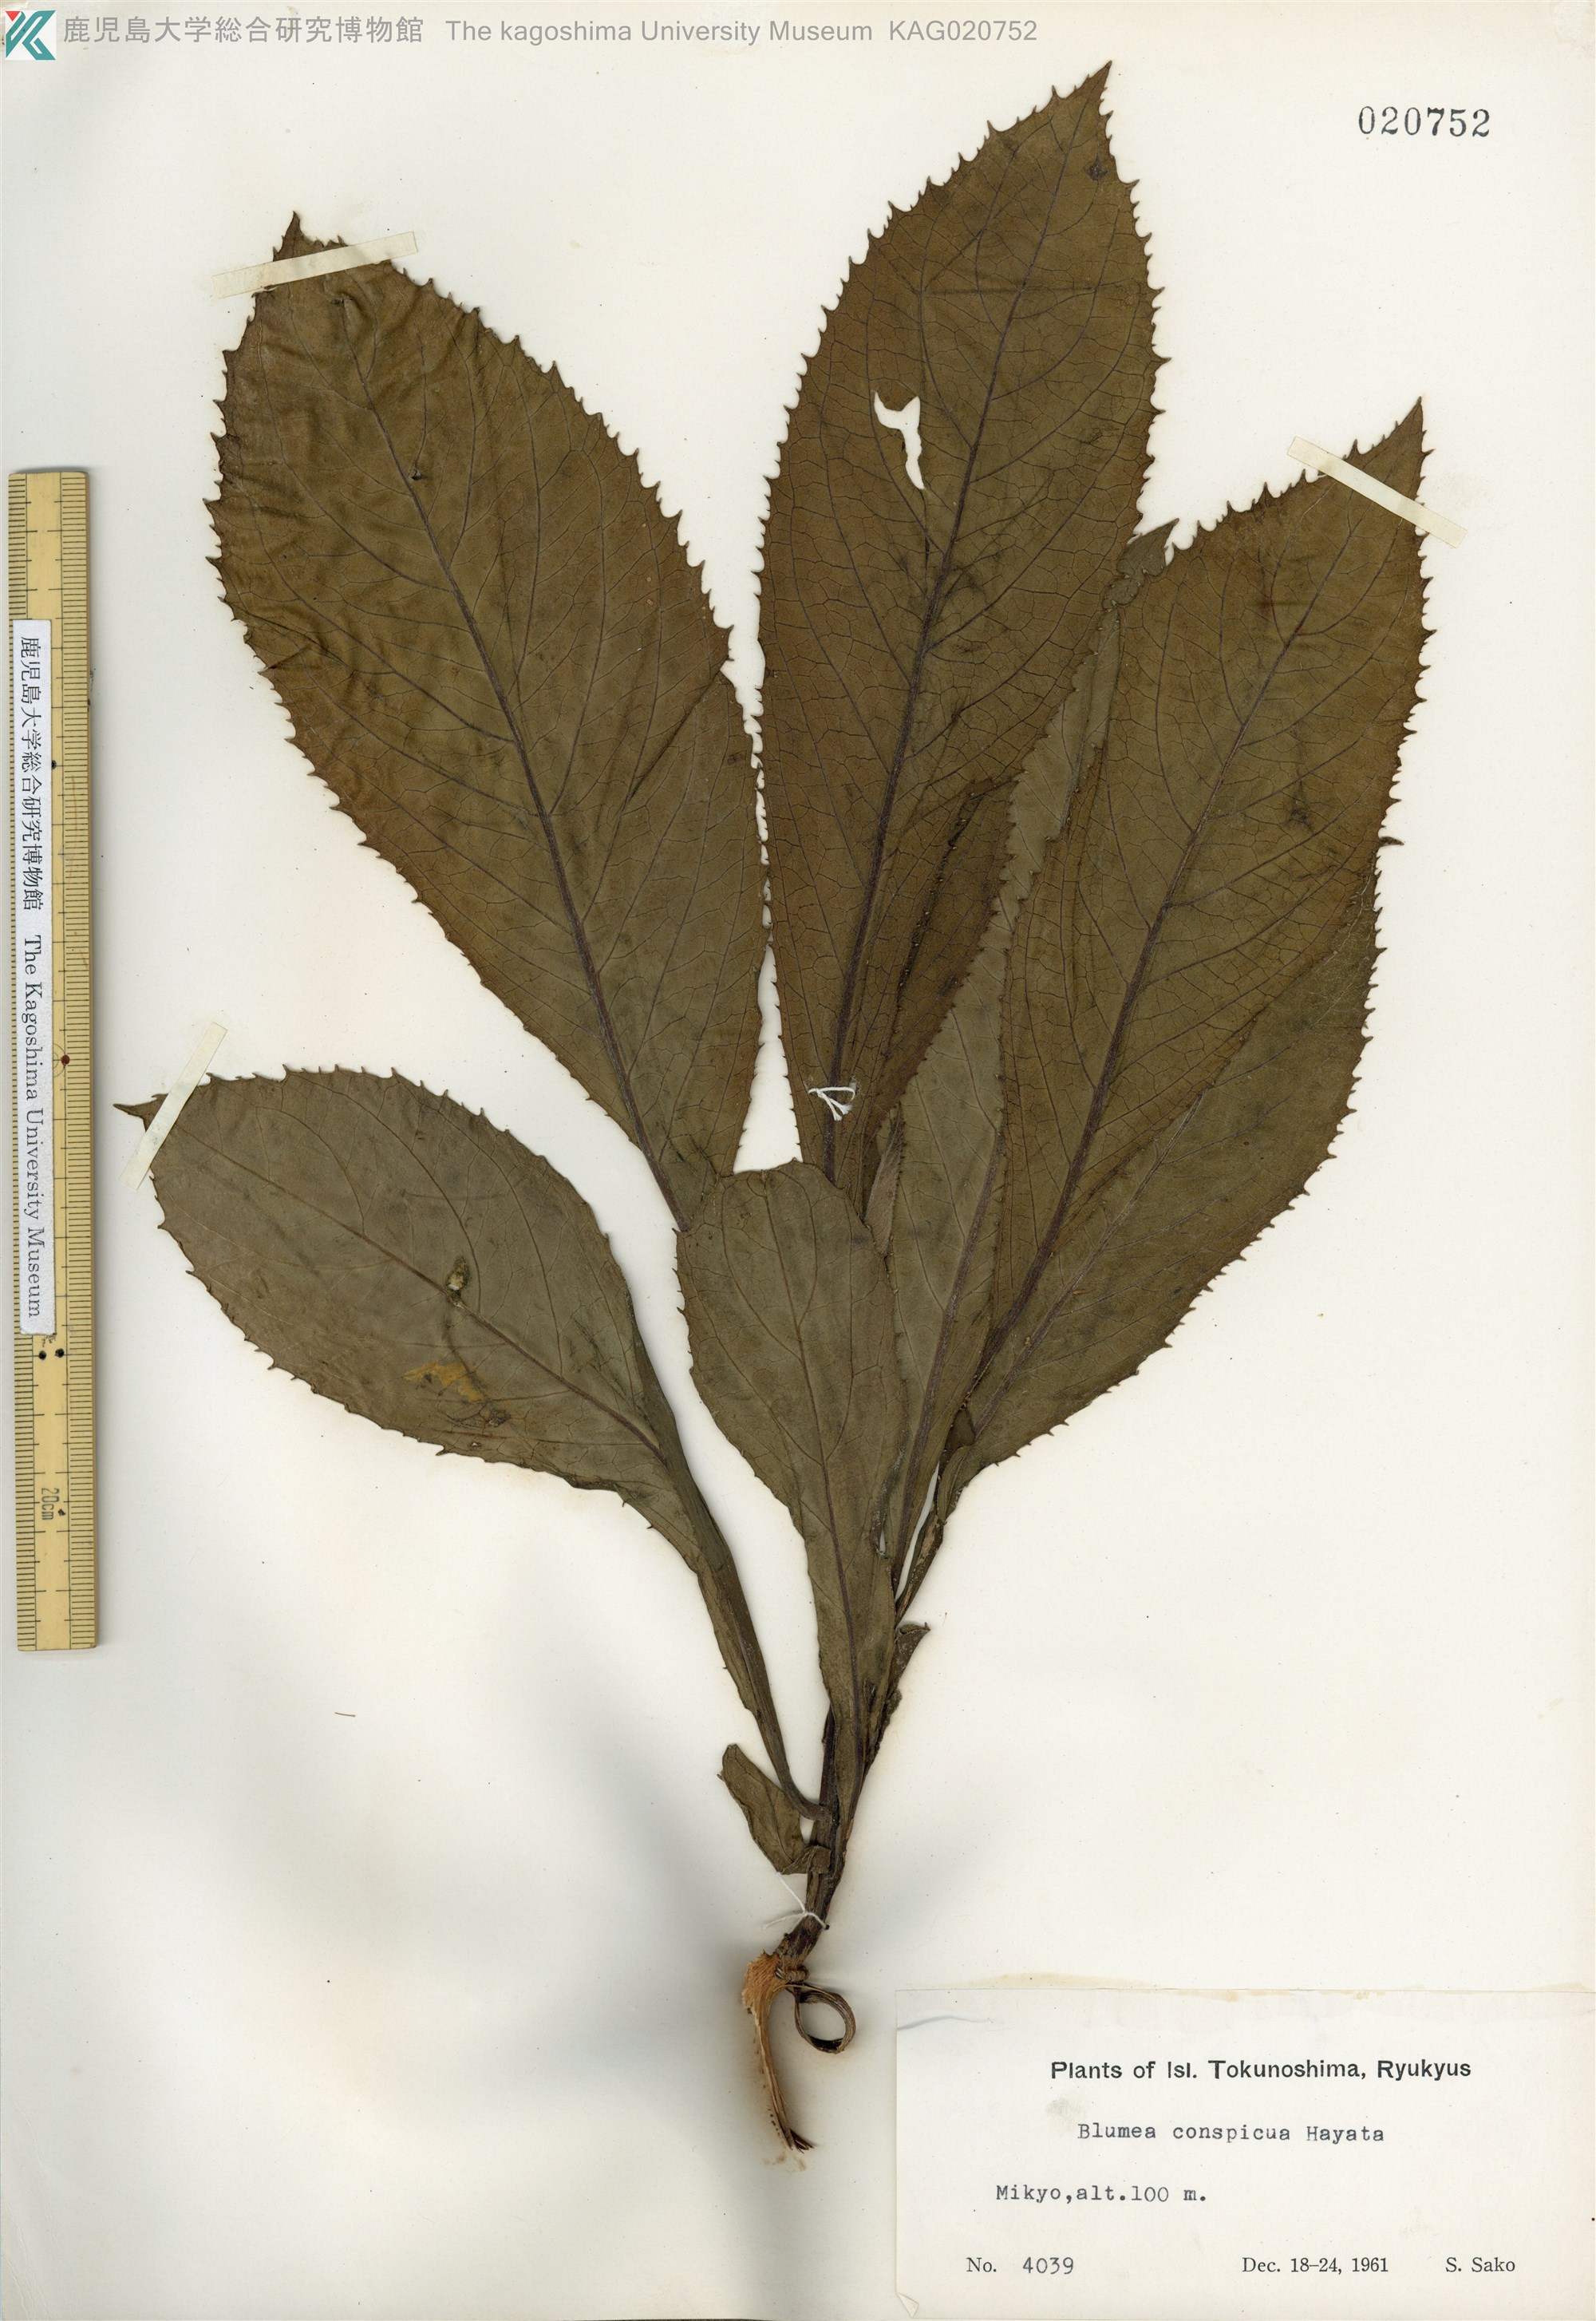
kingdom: Plantae
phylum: Tracheophyta
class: Magnoliopsida
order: Asterales
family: Asteraceae
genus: Blumea
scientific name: Blumea conspicua
